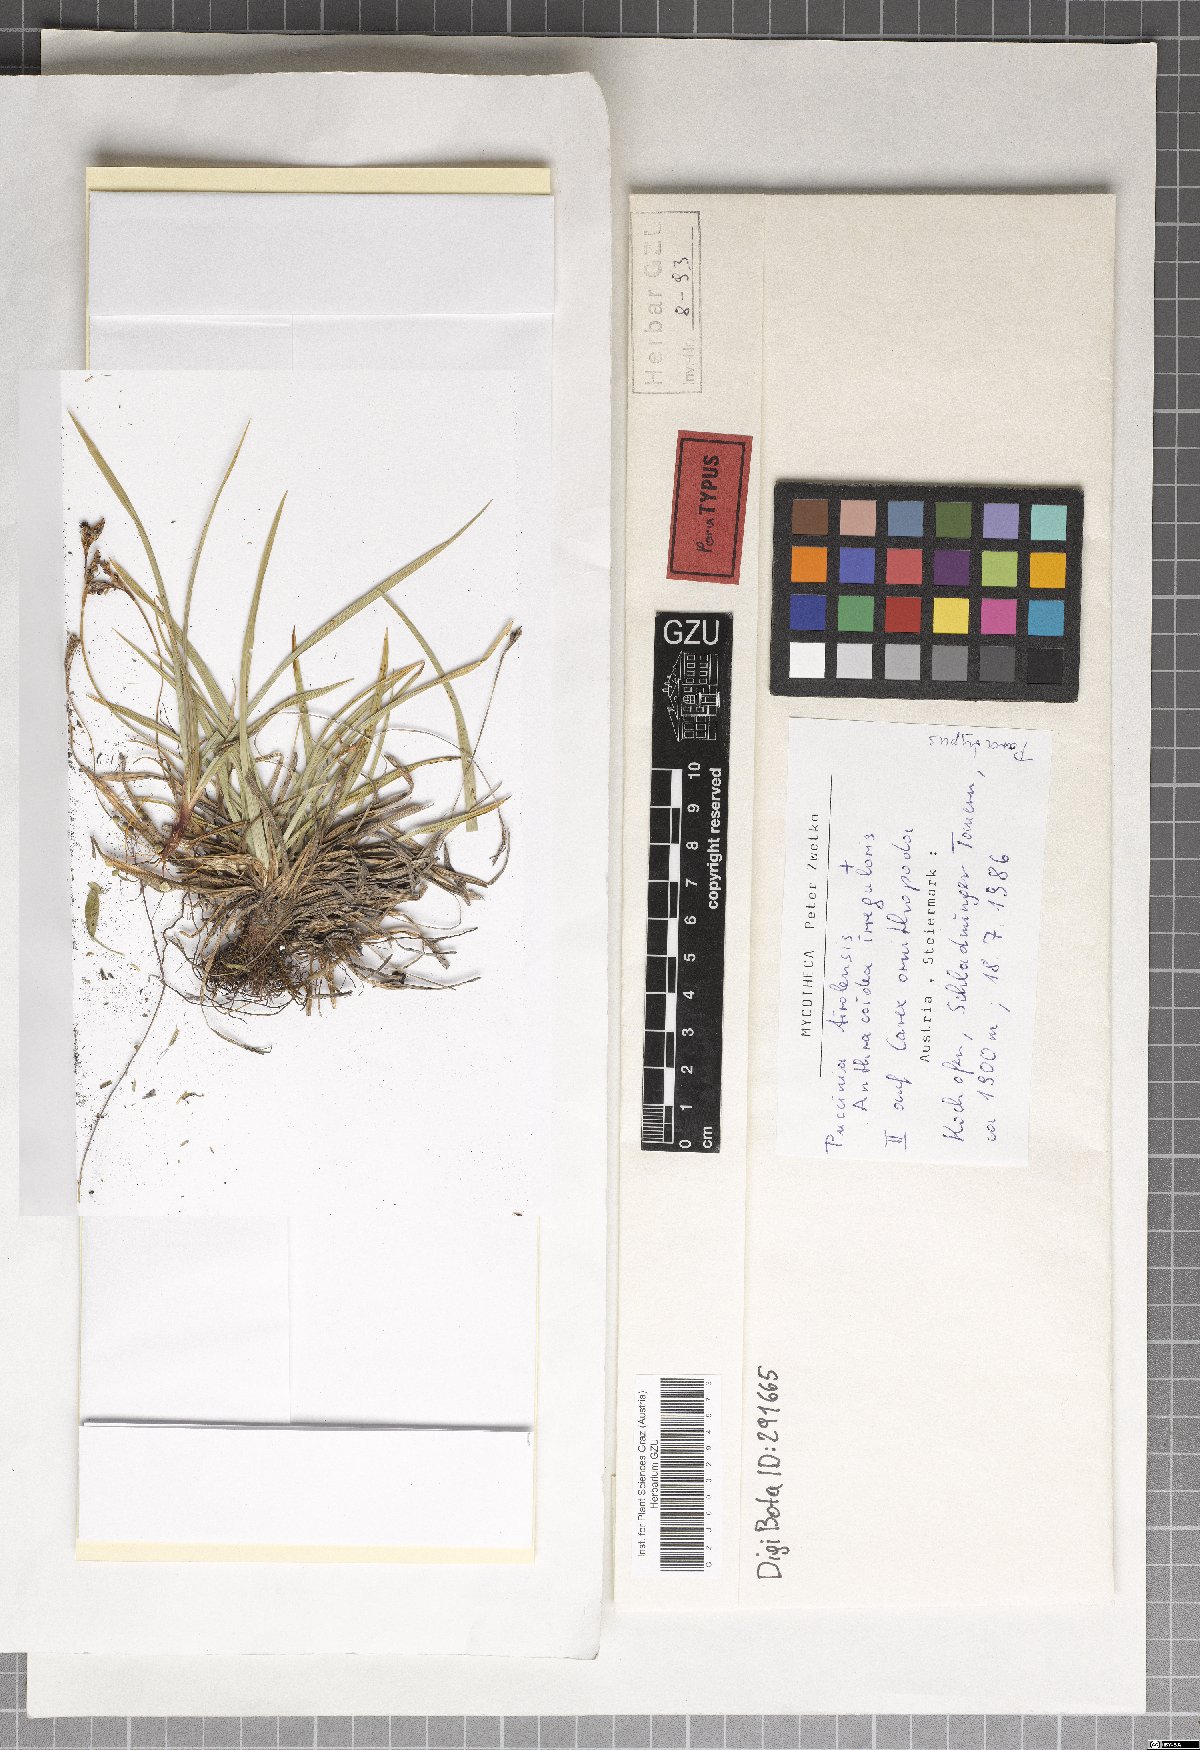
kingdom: Fungi
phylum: Basidiomycota
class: Pucciniomycetes
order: Pucciniales
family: Pucciniaceae
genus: Puccinia
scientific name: Puccinia tirolensis
